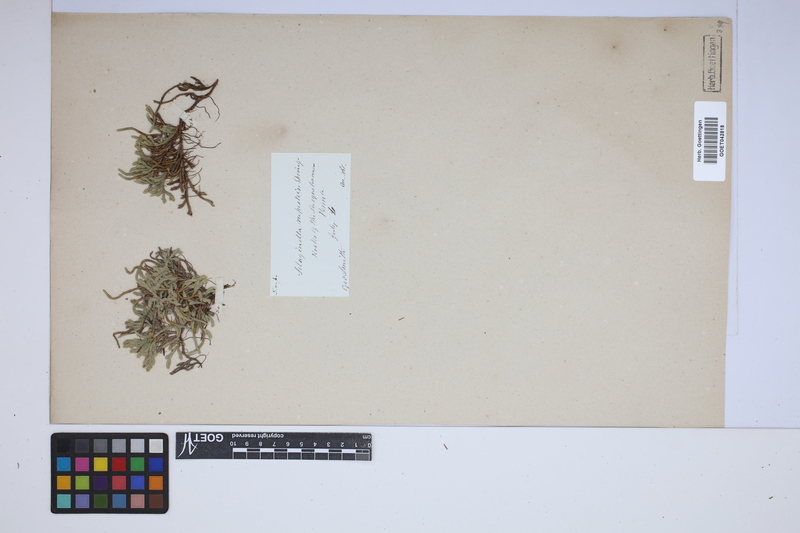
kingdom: Plantae
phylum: Tracheophyta
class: Lycopodiopsida
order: Selaginellales
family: Selaginellaceae
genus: Selaginella
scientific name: Selaginella rupestris
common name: Dwarf spikemoss
